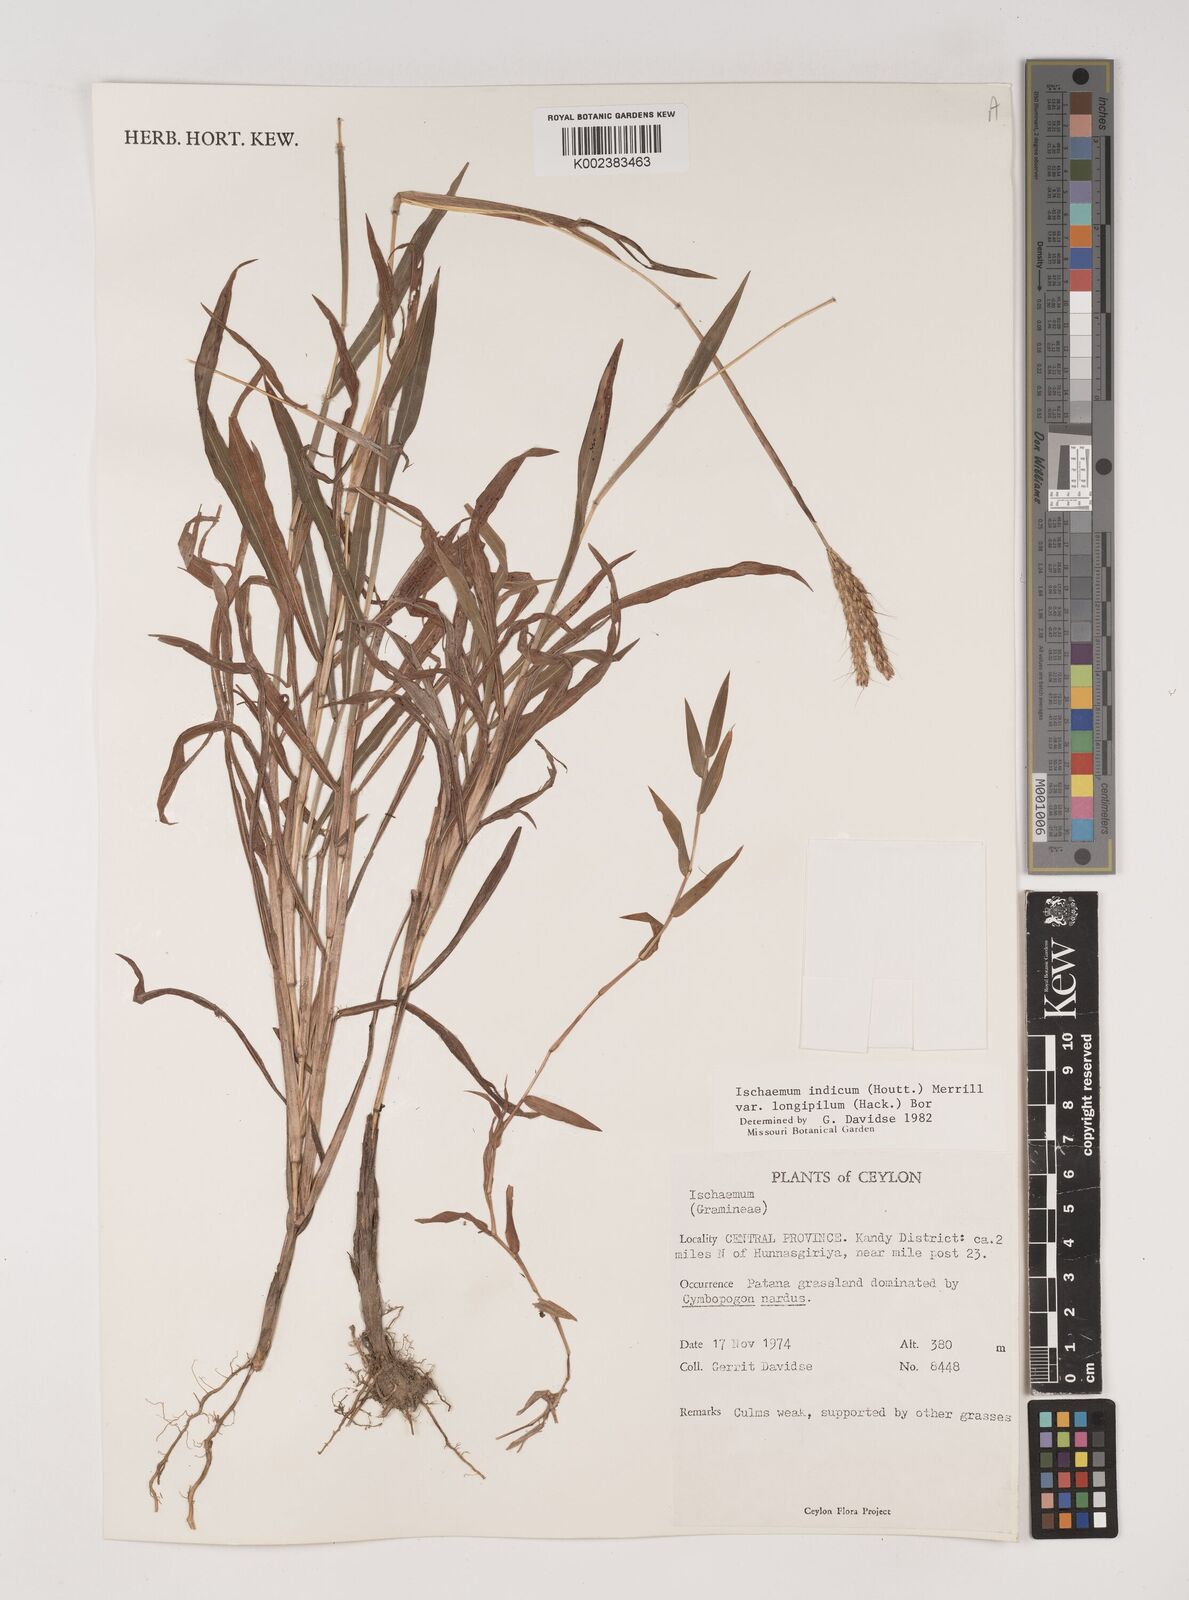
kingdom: Plantae
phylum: Tracheophyta
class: Liliopsida
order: Poales
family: Poaceae
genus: Polytrias
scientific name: Polytrias indica
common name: Indian murainagrass
